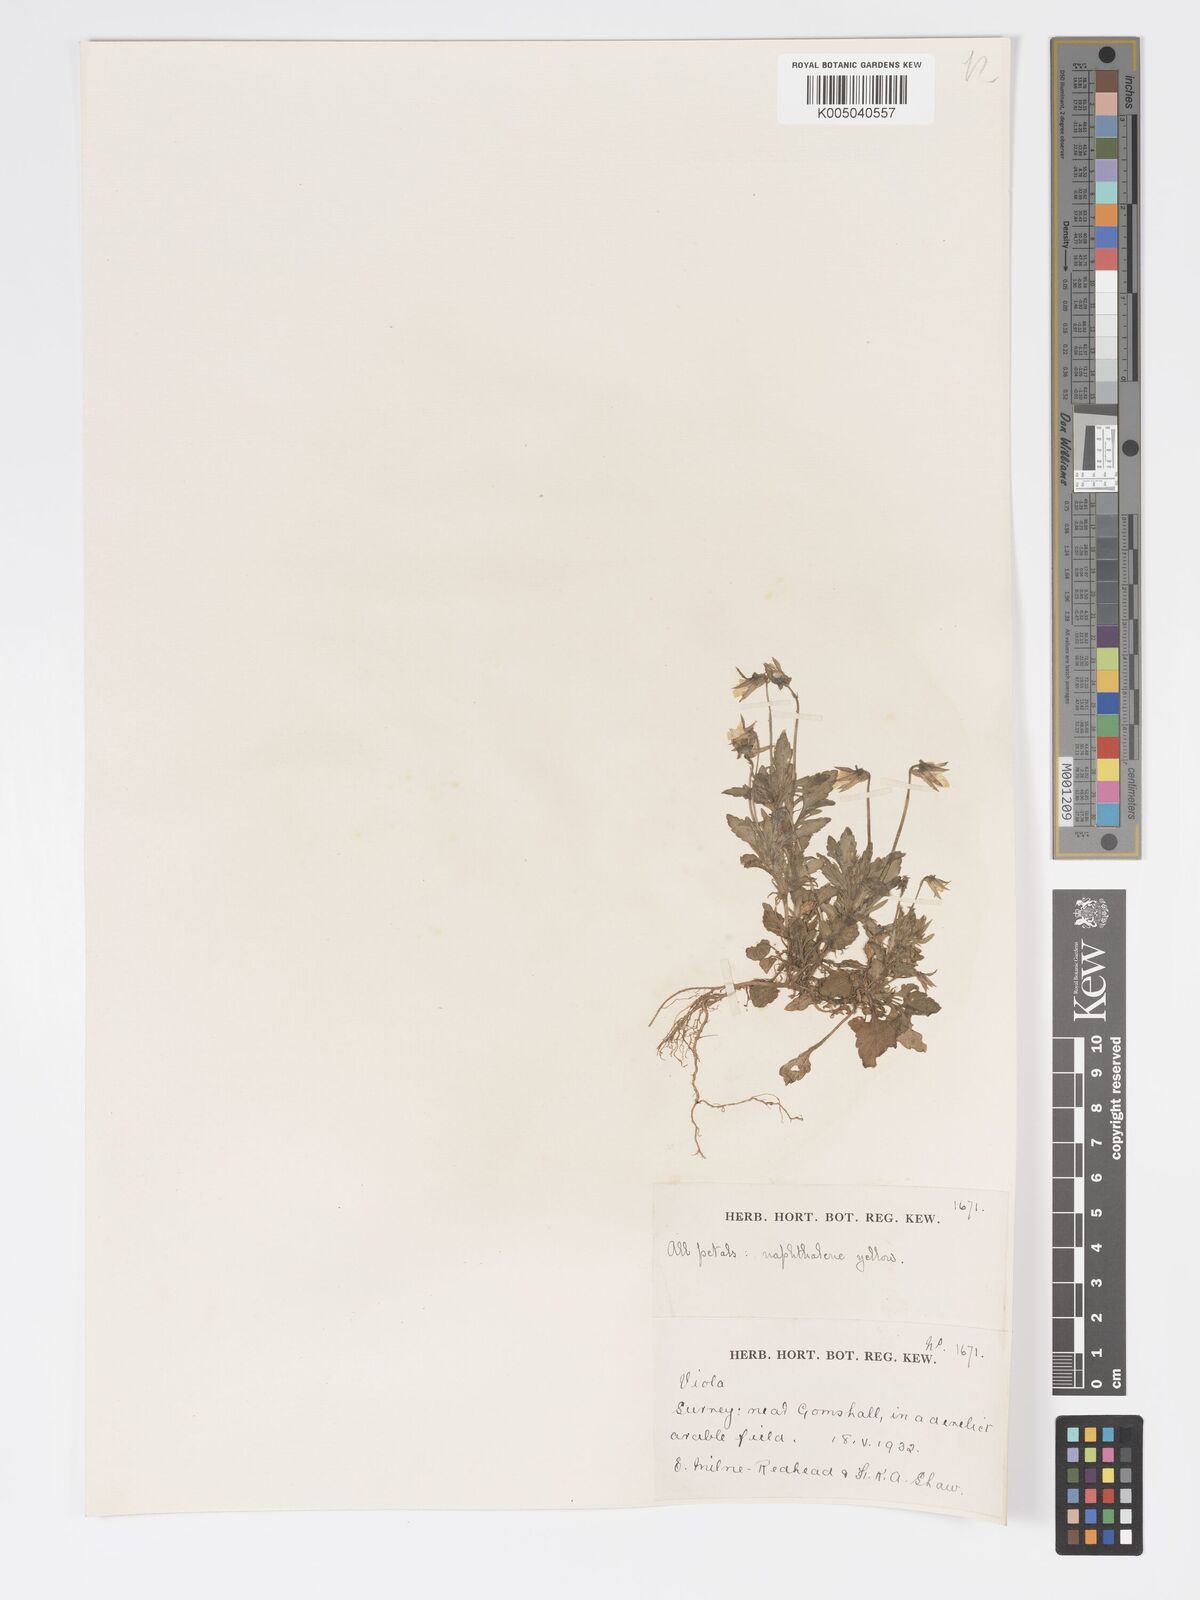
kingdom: Plantae
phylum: Tracheophyta
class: Magnoliopsida
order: Malpighiales
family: Violaceae
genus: Viola
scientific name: Viola
